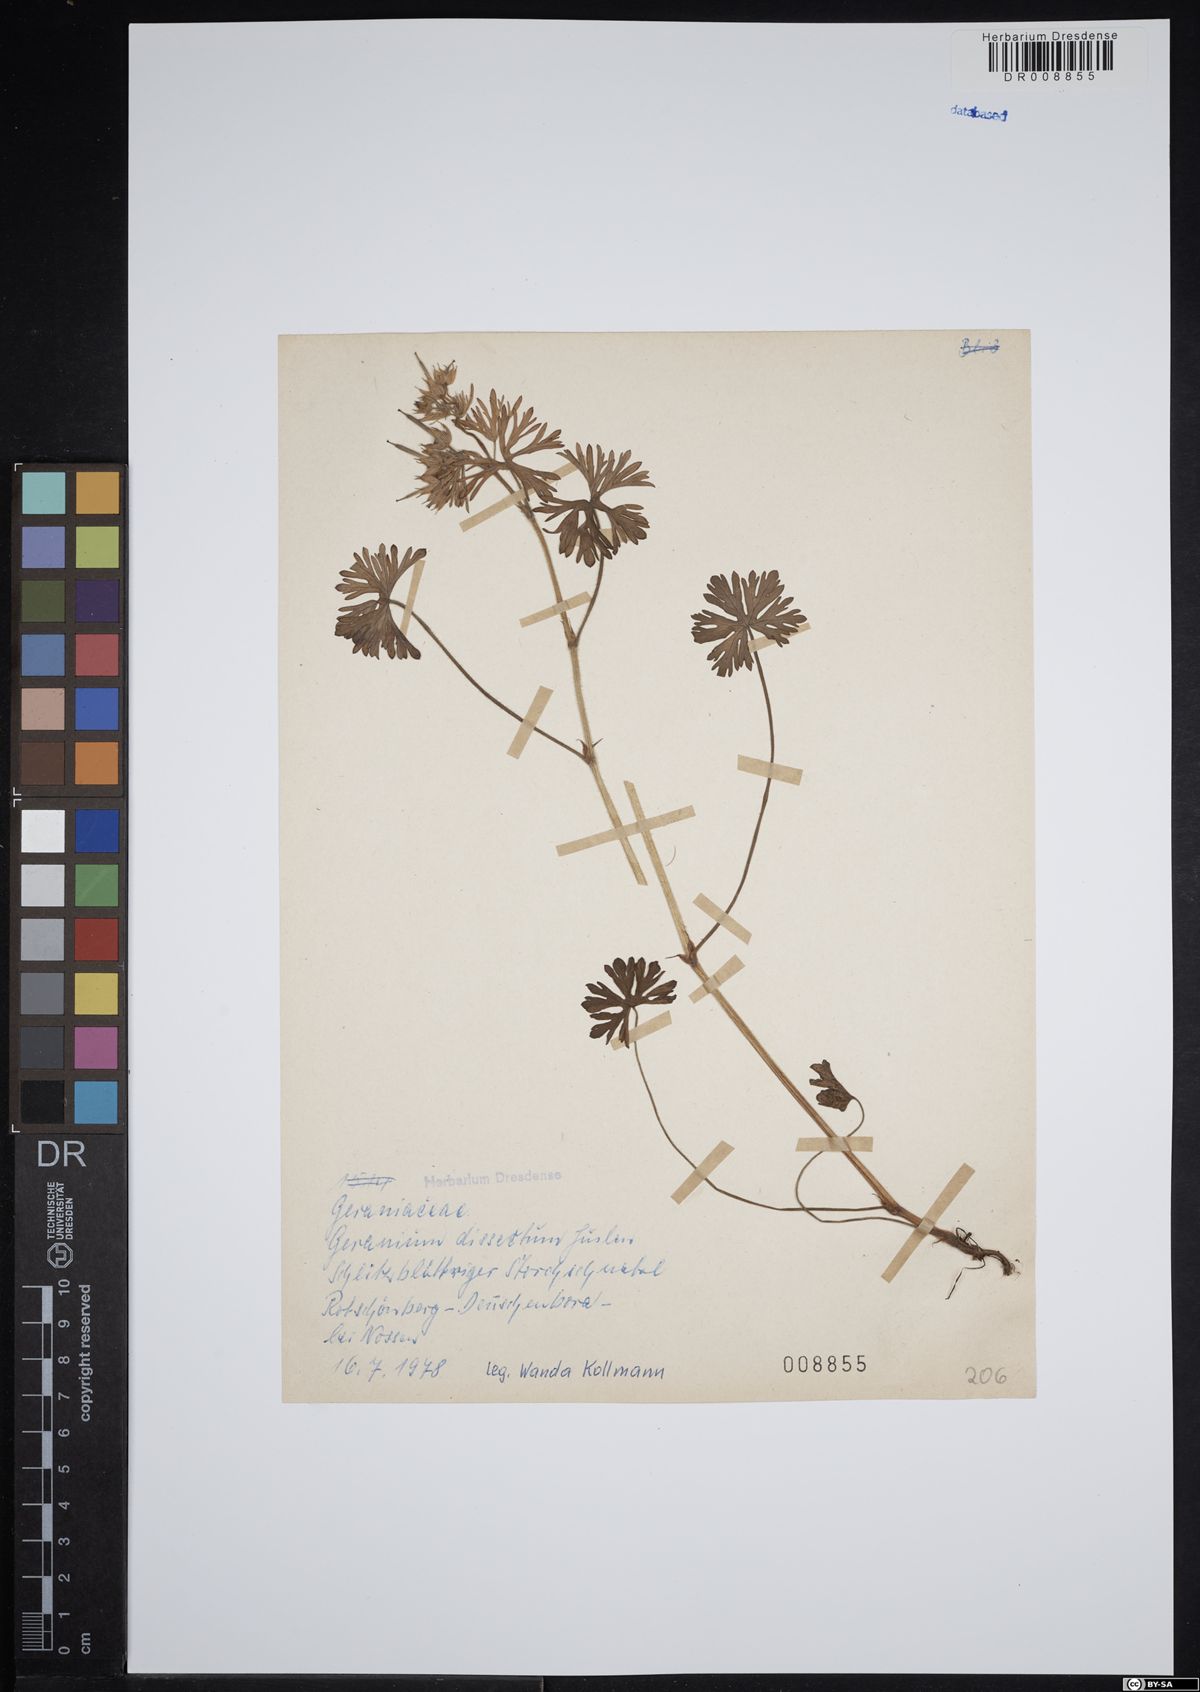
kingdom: Plantae
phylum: Tracheophyta
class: Magnoliopsida
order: Geraniales
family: Geraniaceae
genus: Geranium
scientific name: Geranium dissectum
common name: Cut-leaved crane's-bill
